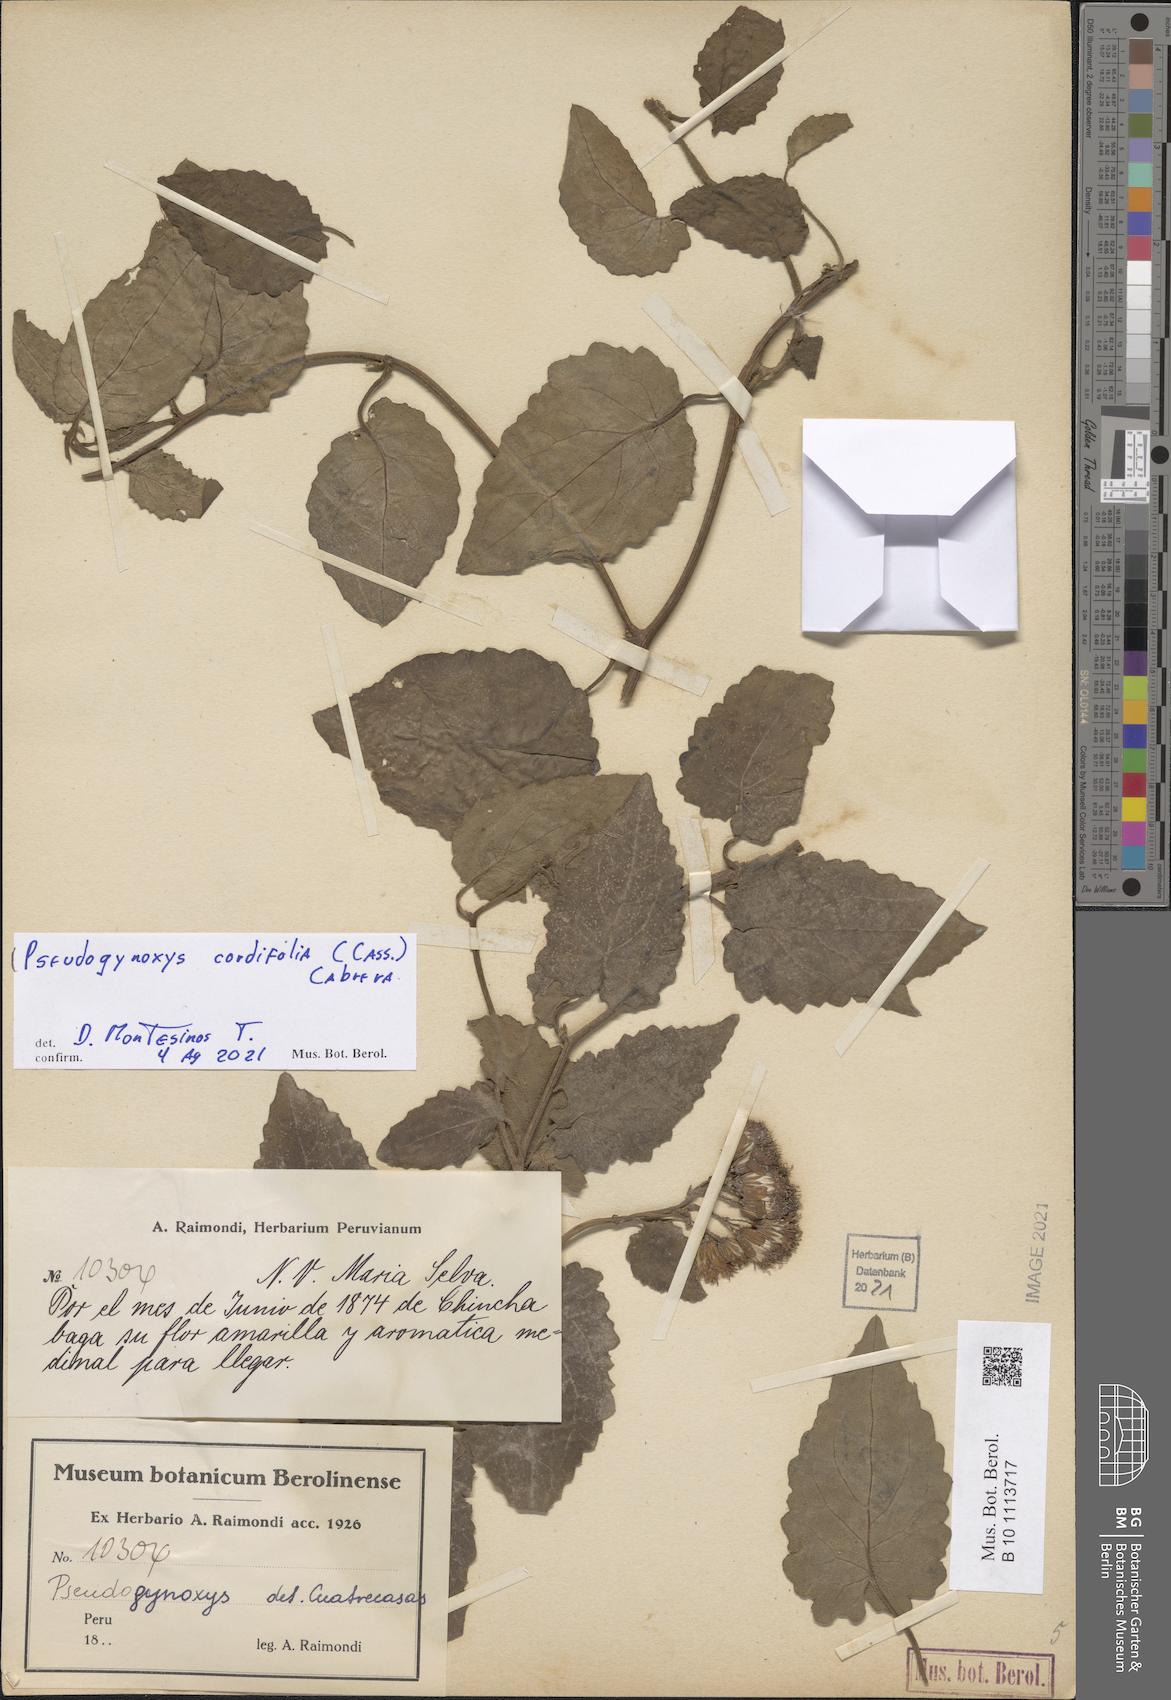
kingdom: Plantae
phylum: Tracheophyta
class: Magnoliopsida
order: Asterales
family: Asteraceae
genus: Pseudogynoxys
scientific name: Pseudogynoxys chenopodioides
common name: Mexican flamevine
